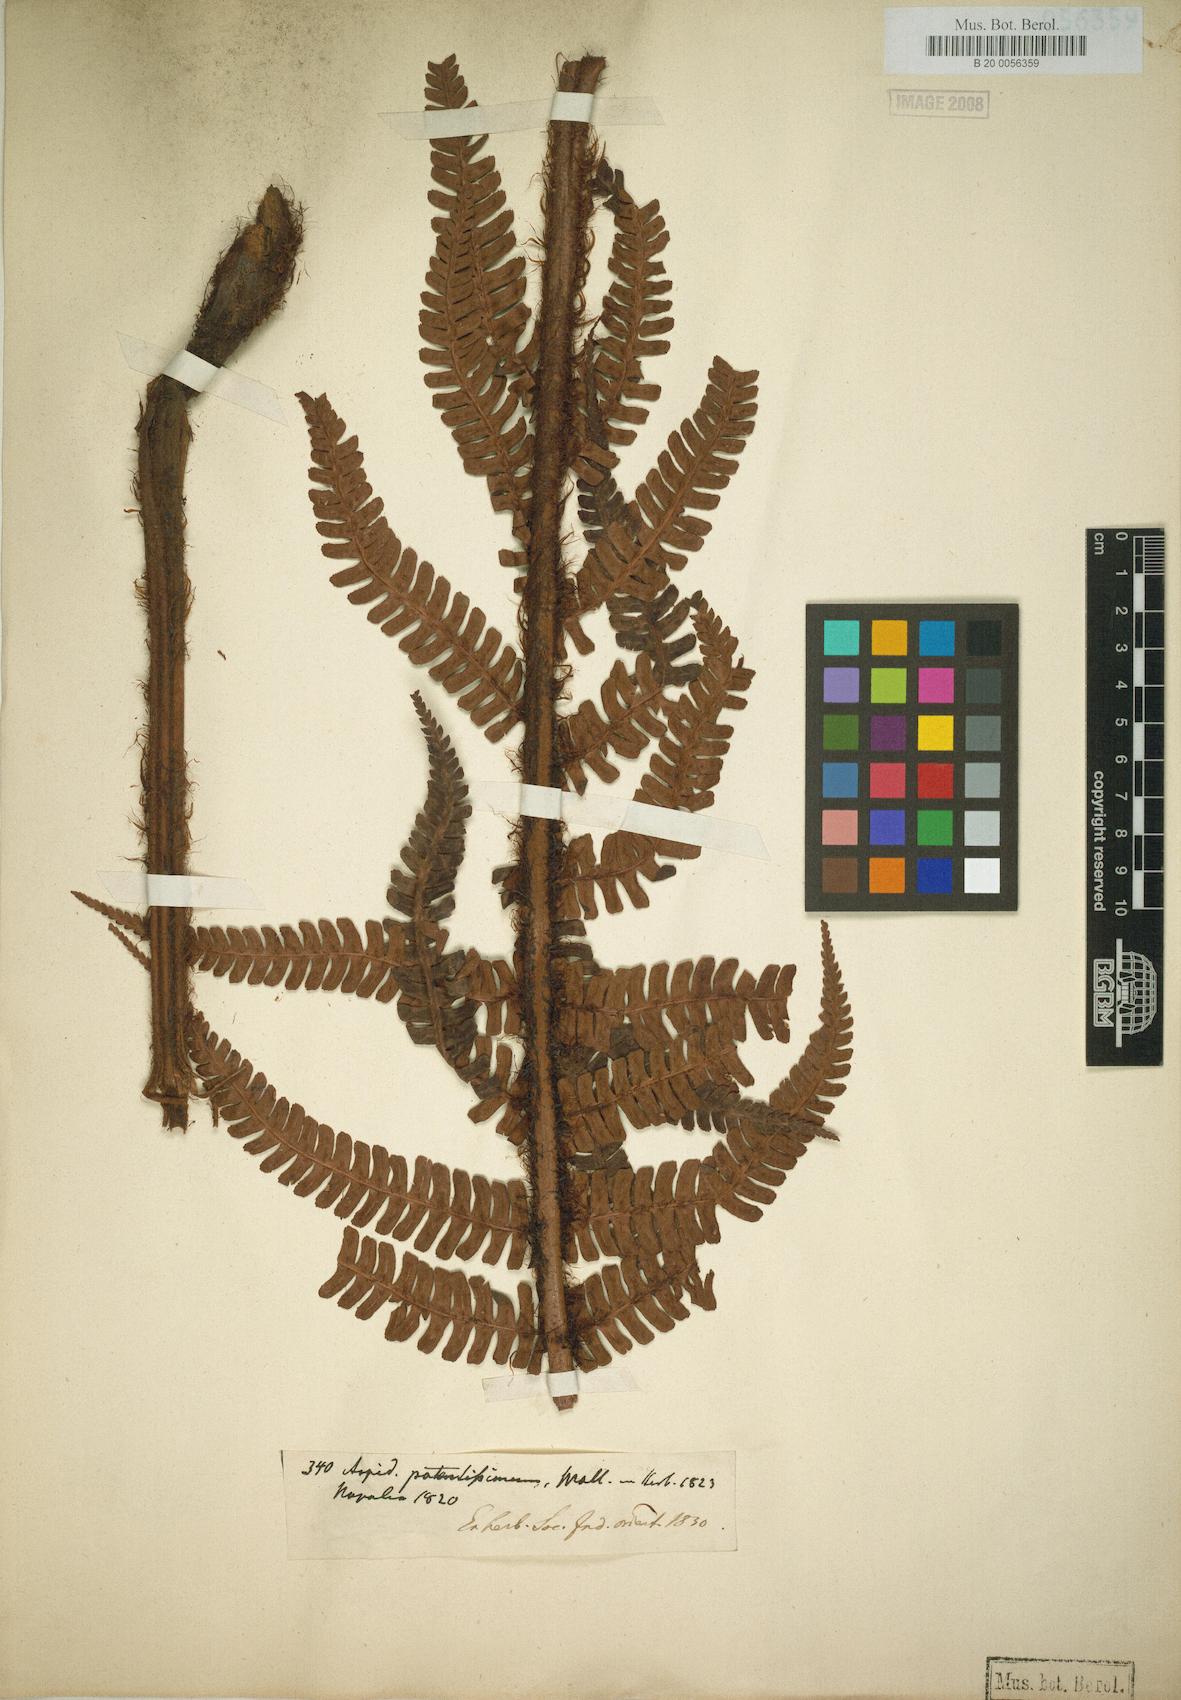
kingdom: Plantae
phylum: Tracheophyta
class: Polypodiopsida
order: Polypodiales
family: Dryopteridaceae
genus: Dryopteris
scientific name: Dryopteris wallichiana
